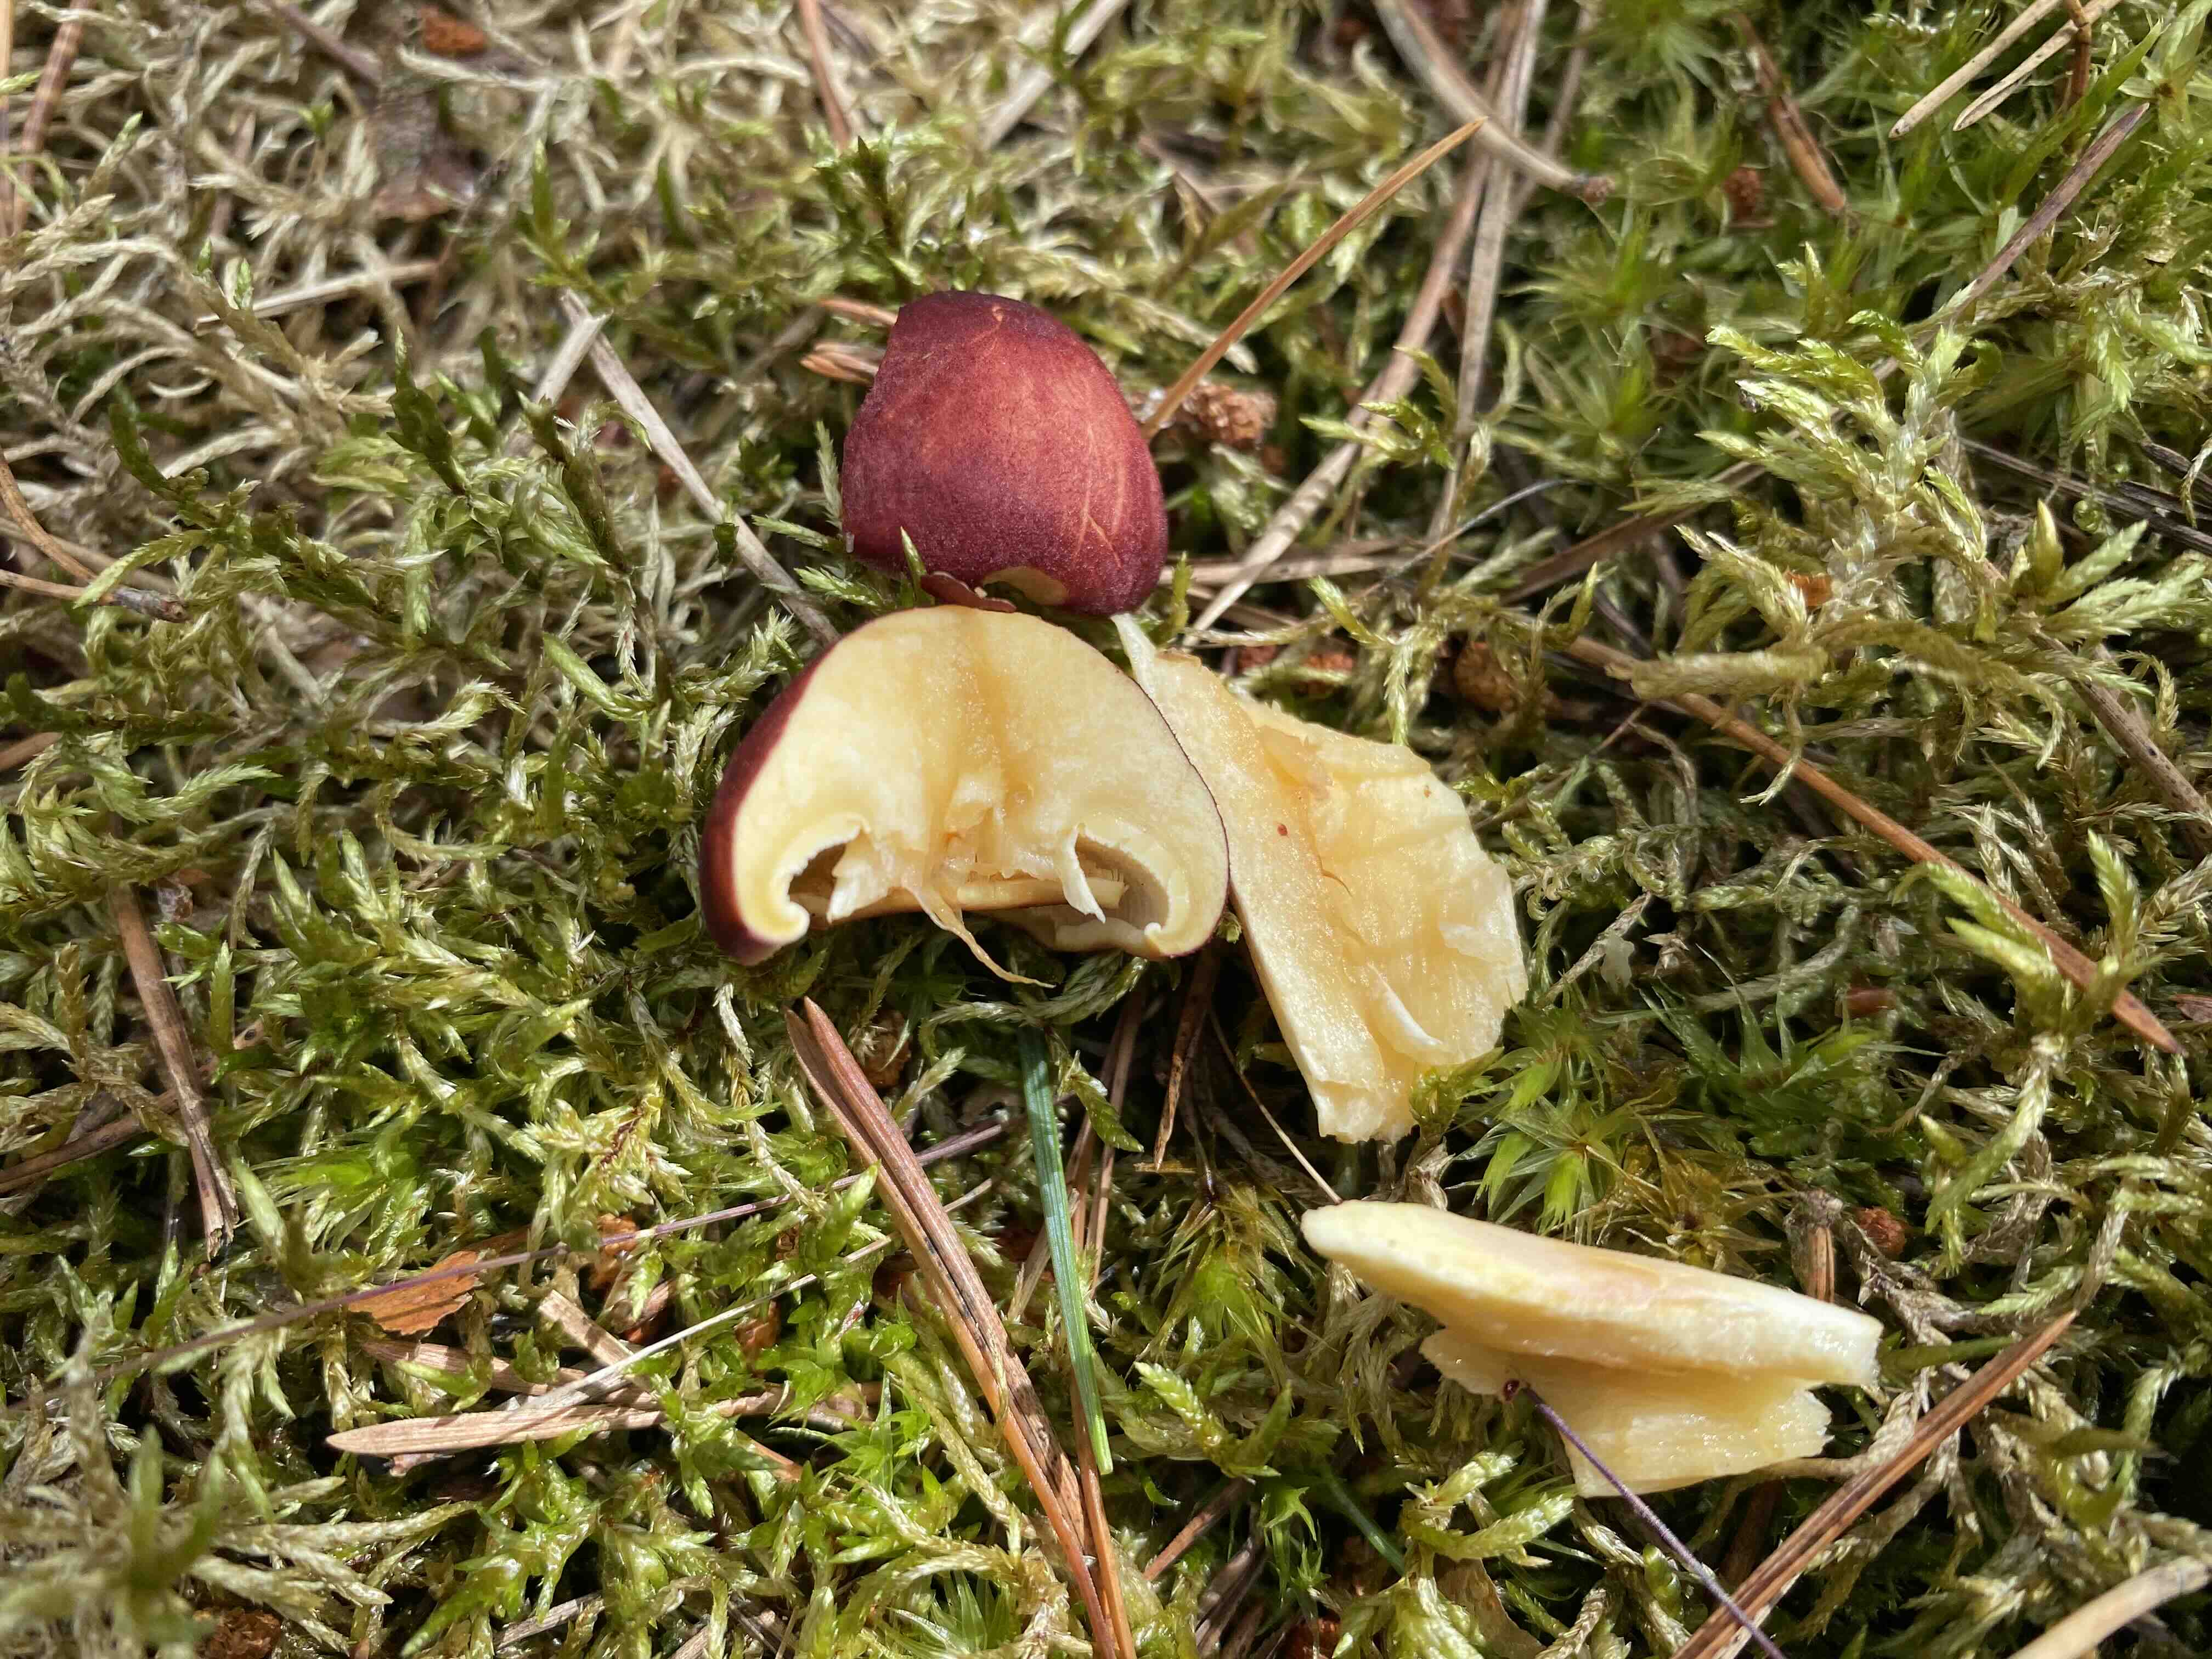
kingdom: Fungi
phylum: Basidiomycota
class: Agaricomycetes
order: Agaricales
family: Tricholomataceae
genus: Tricholomopsis
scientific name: Tricholomopsis rutilans
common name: purpur-væbnerhat
